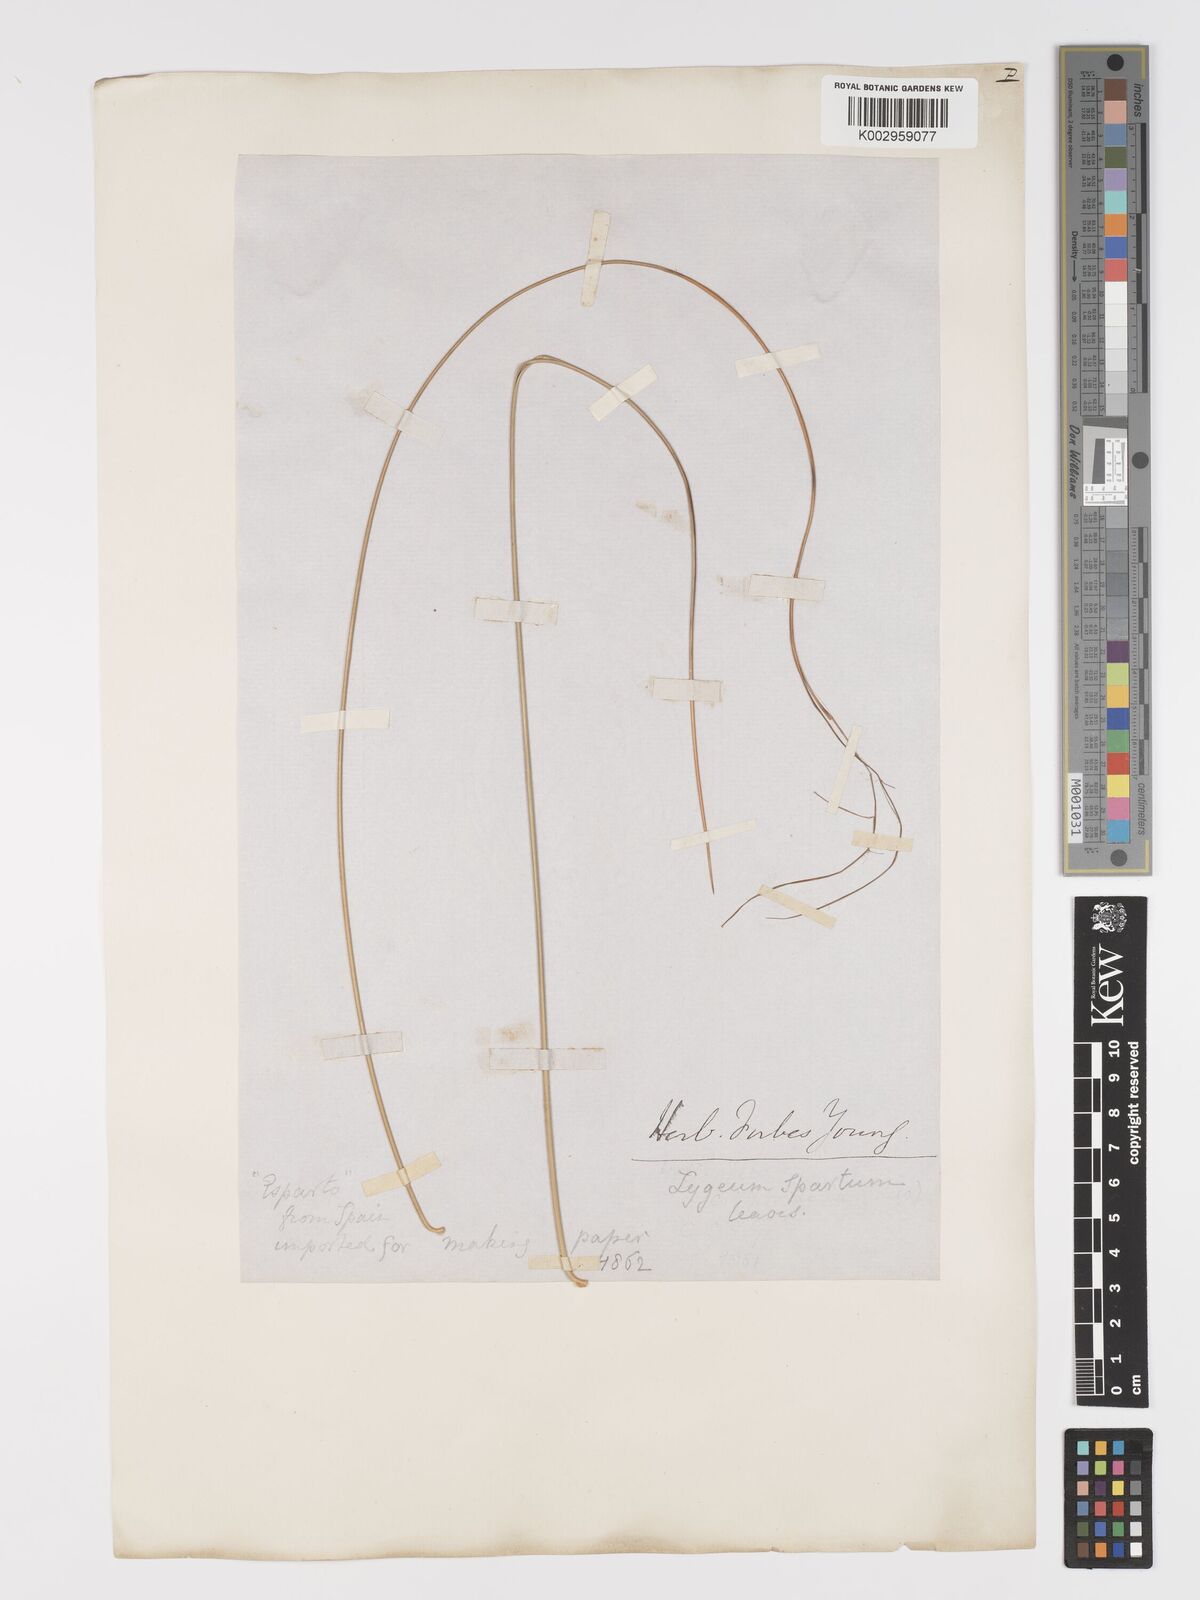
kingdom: Plantae
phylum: Tracheophyta
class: Liliopsida
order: Poales
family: Poaceae
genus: Lygeum
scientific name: Lygeum spartum
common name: Albardine
